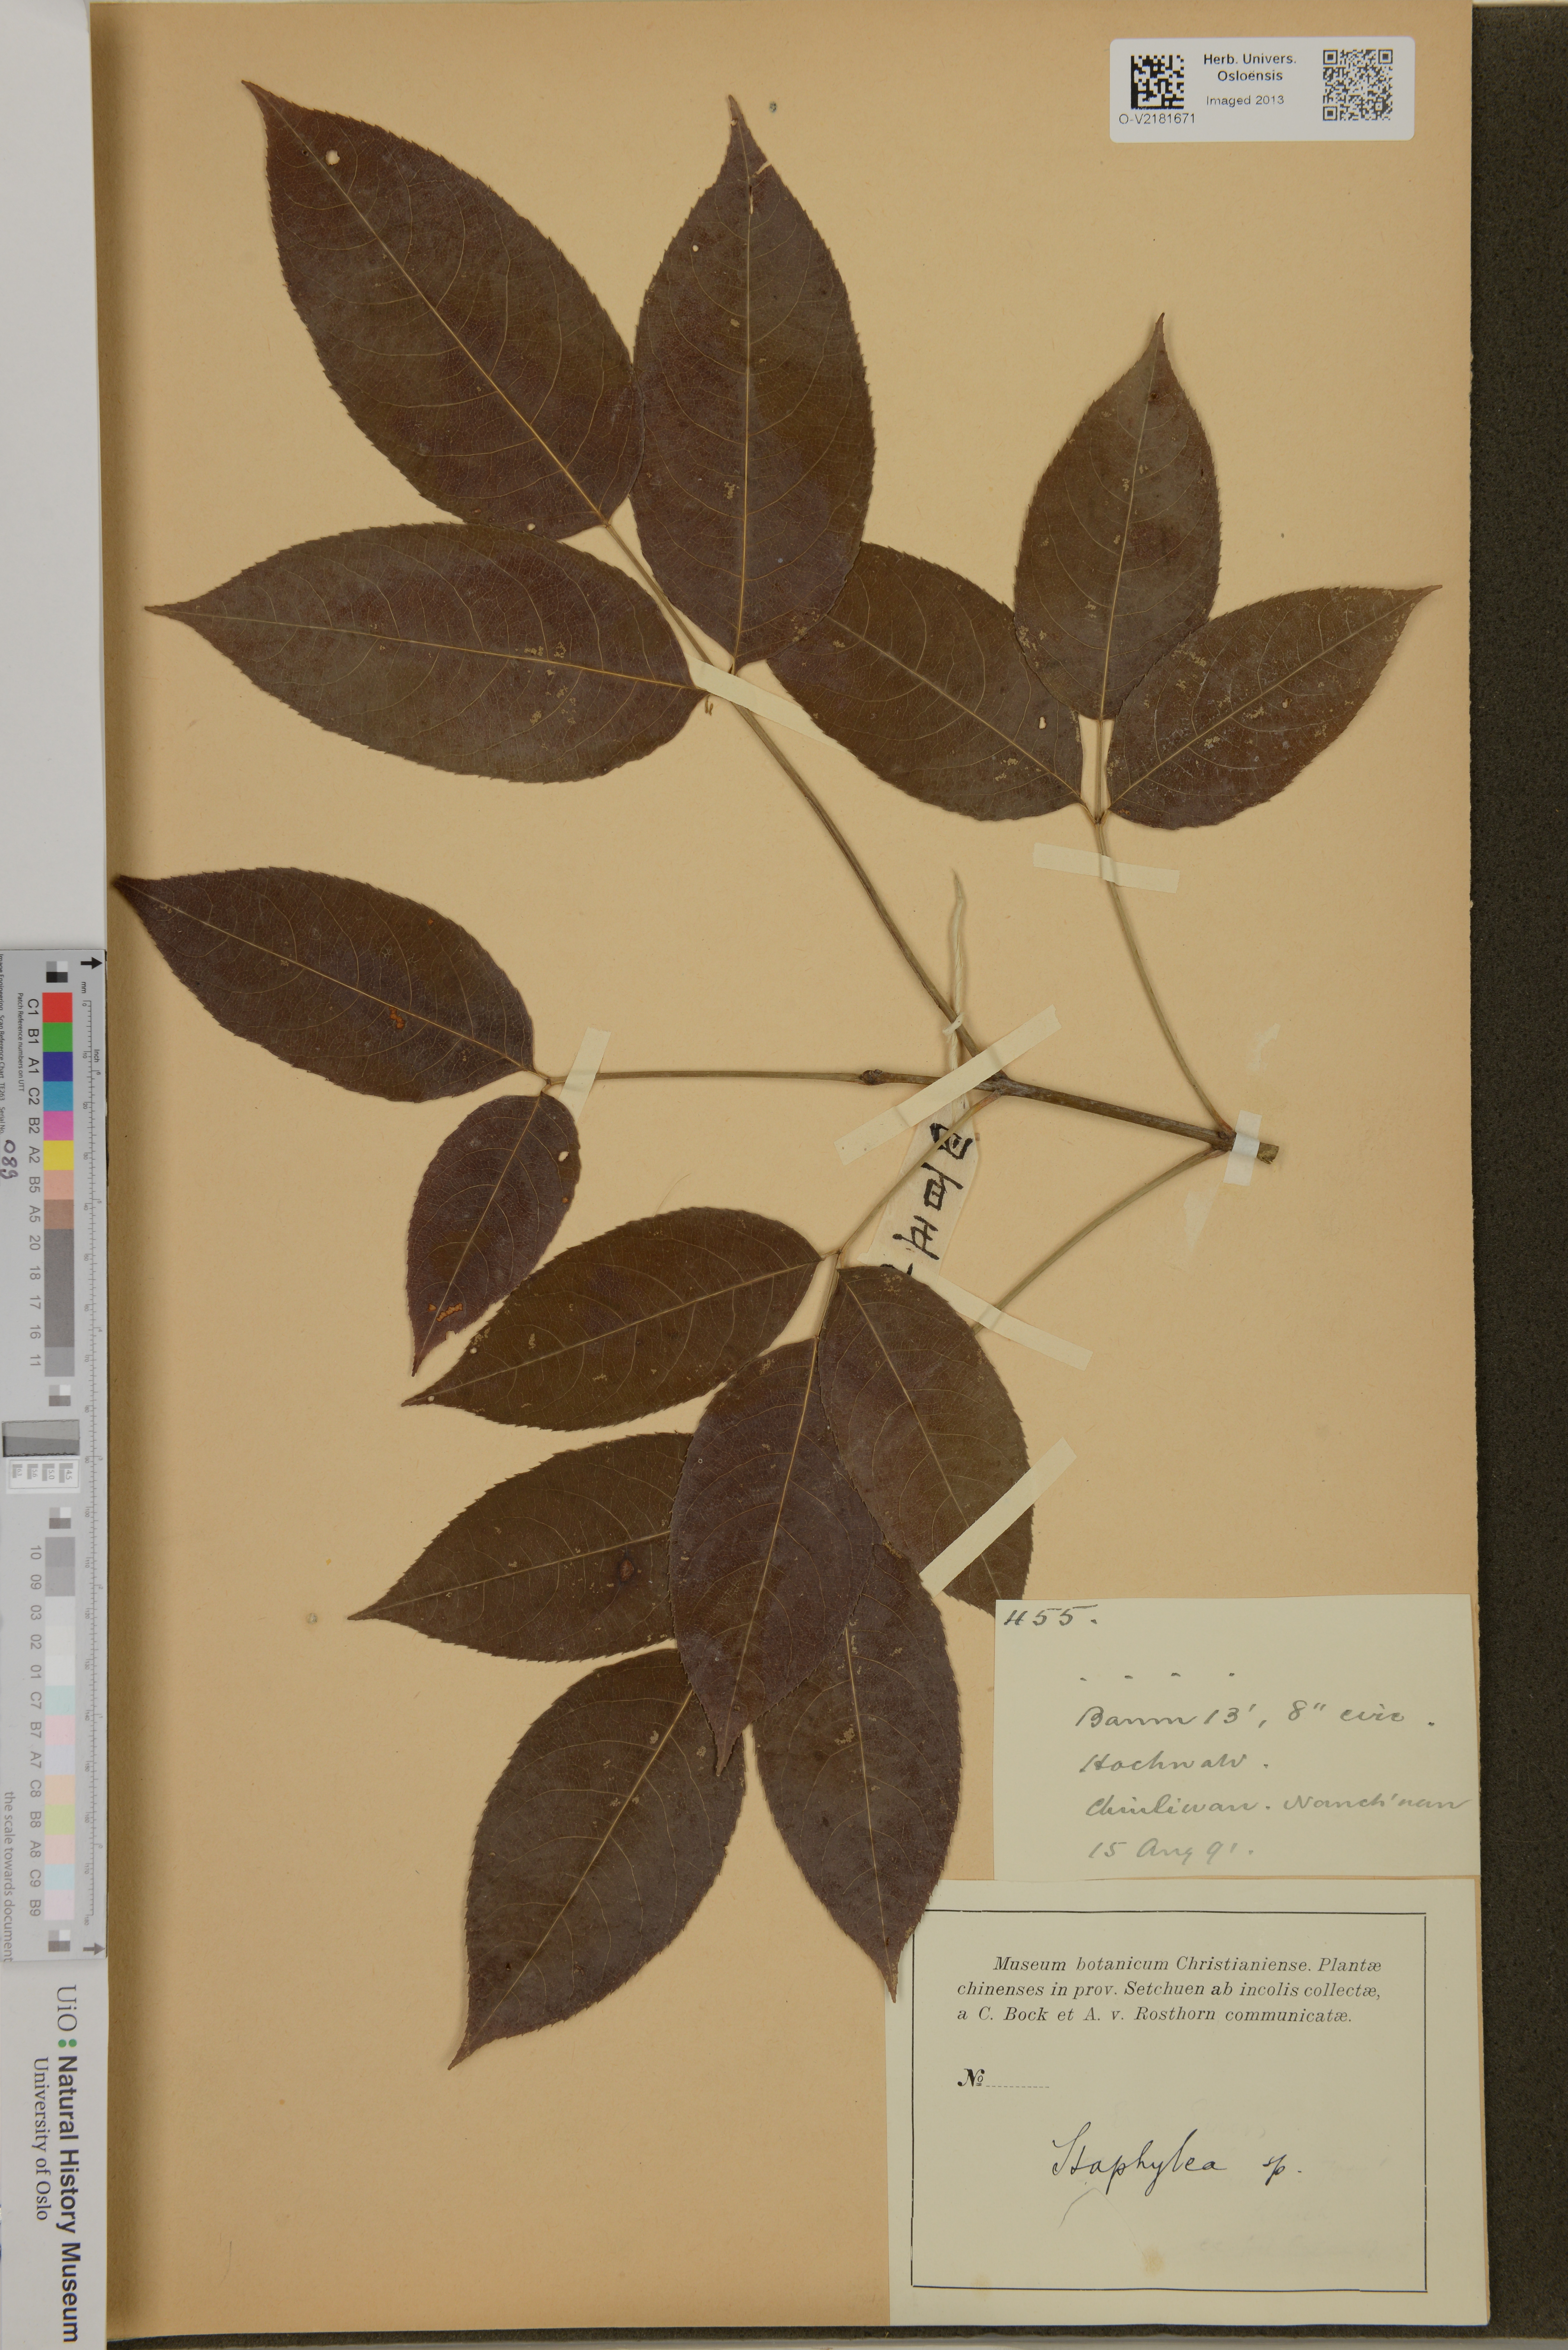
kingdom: Plantae
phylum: Tracheophyta
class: Magnoliopsida
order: Crossosomatales
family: Staphyleaceae
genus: Staphylea
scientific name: Staphylea
